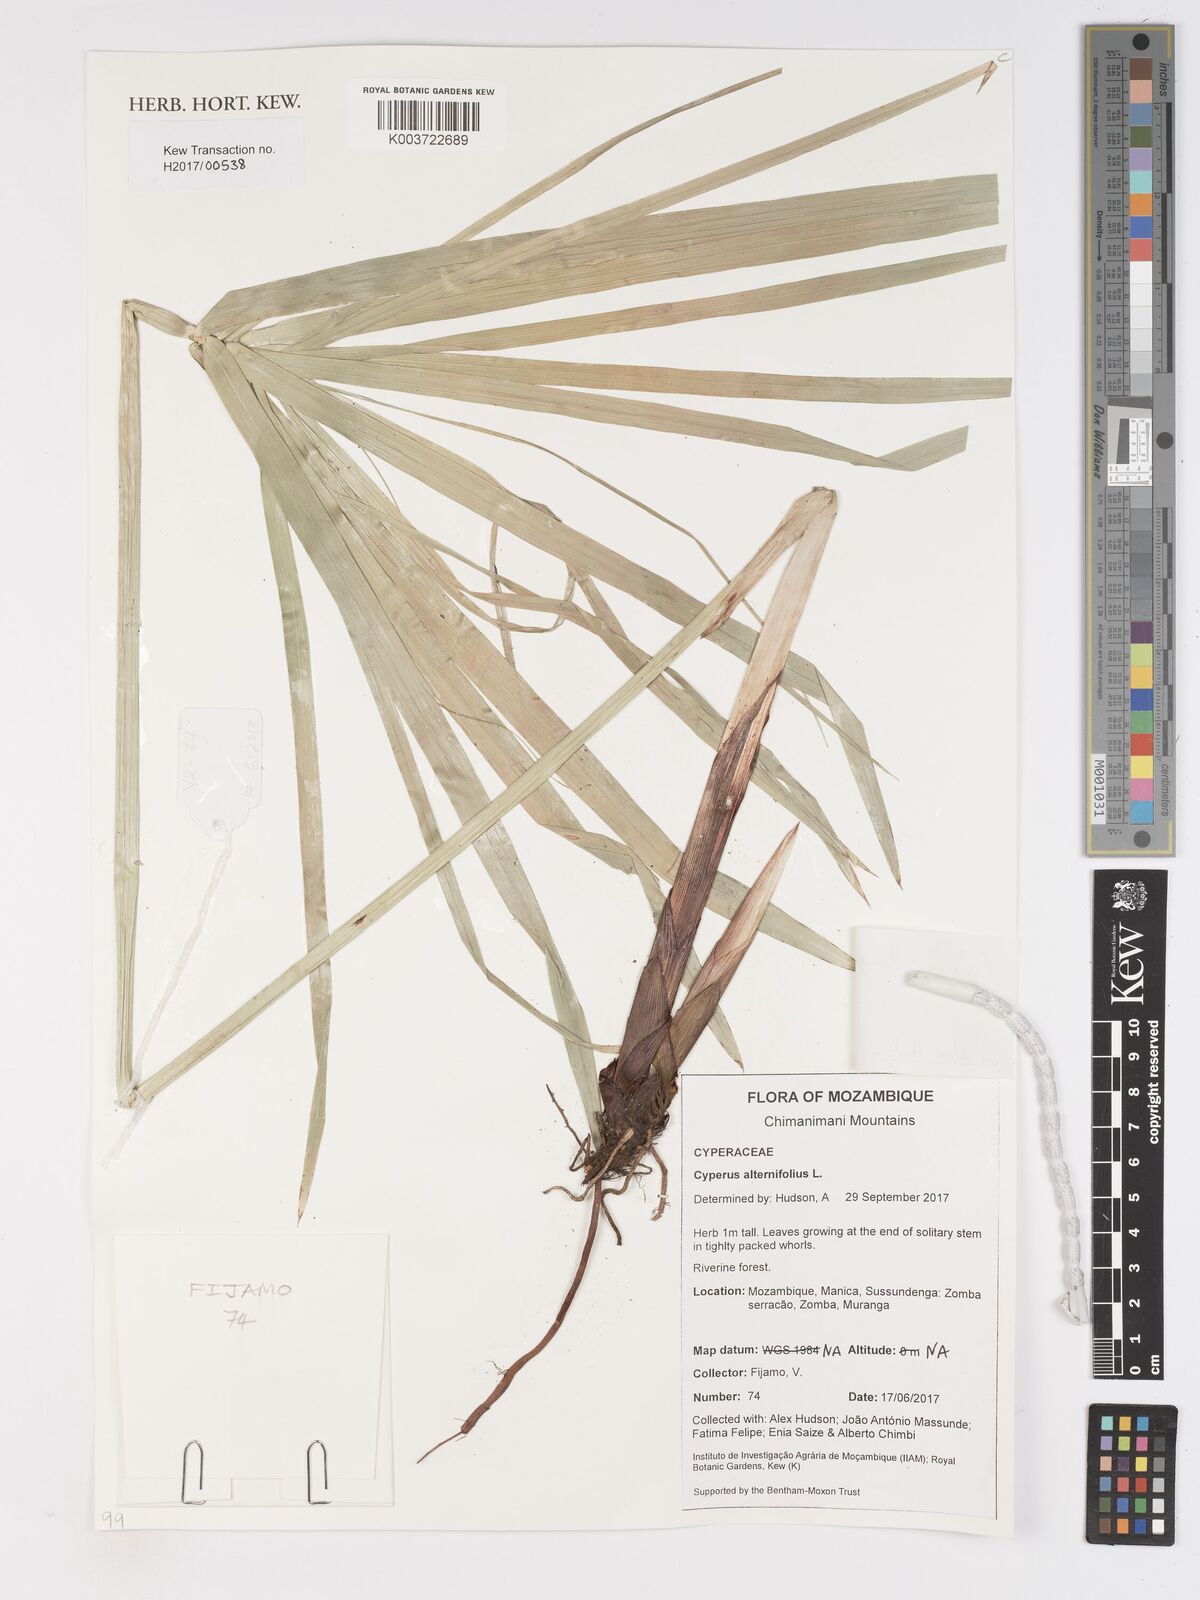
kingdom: Plantae
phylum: Tracheophyta
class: Liliopsida
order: Poales
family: Cyperaceae
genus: Cyperus
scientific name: Cyperus alternifolius
